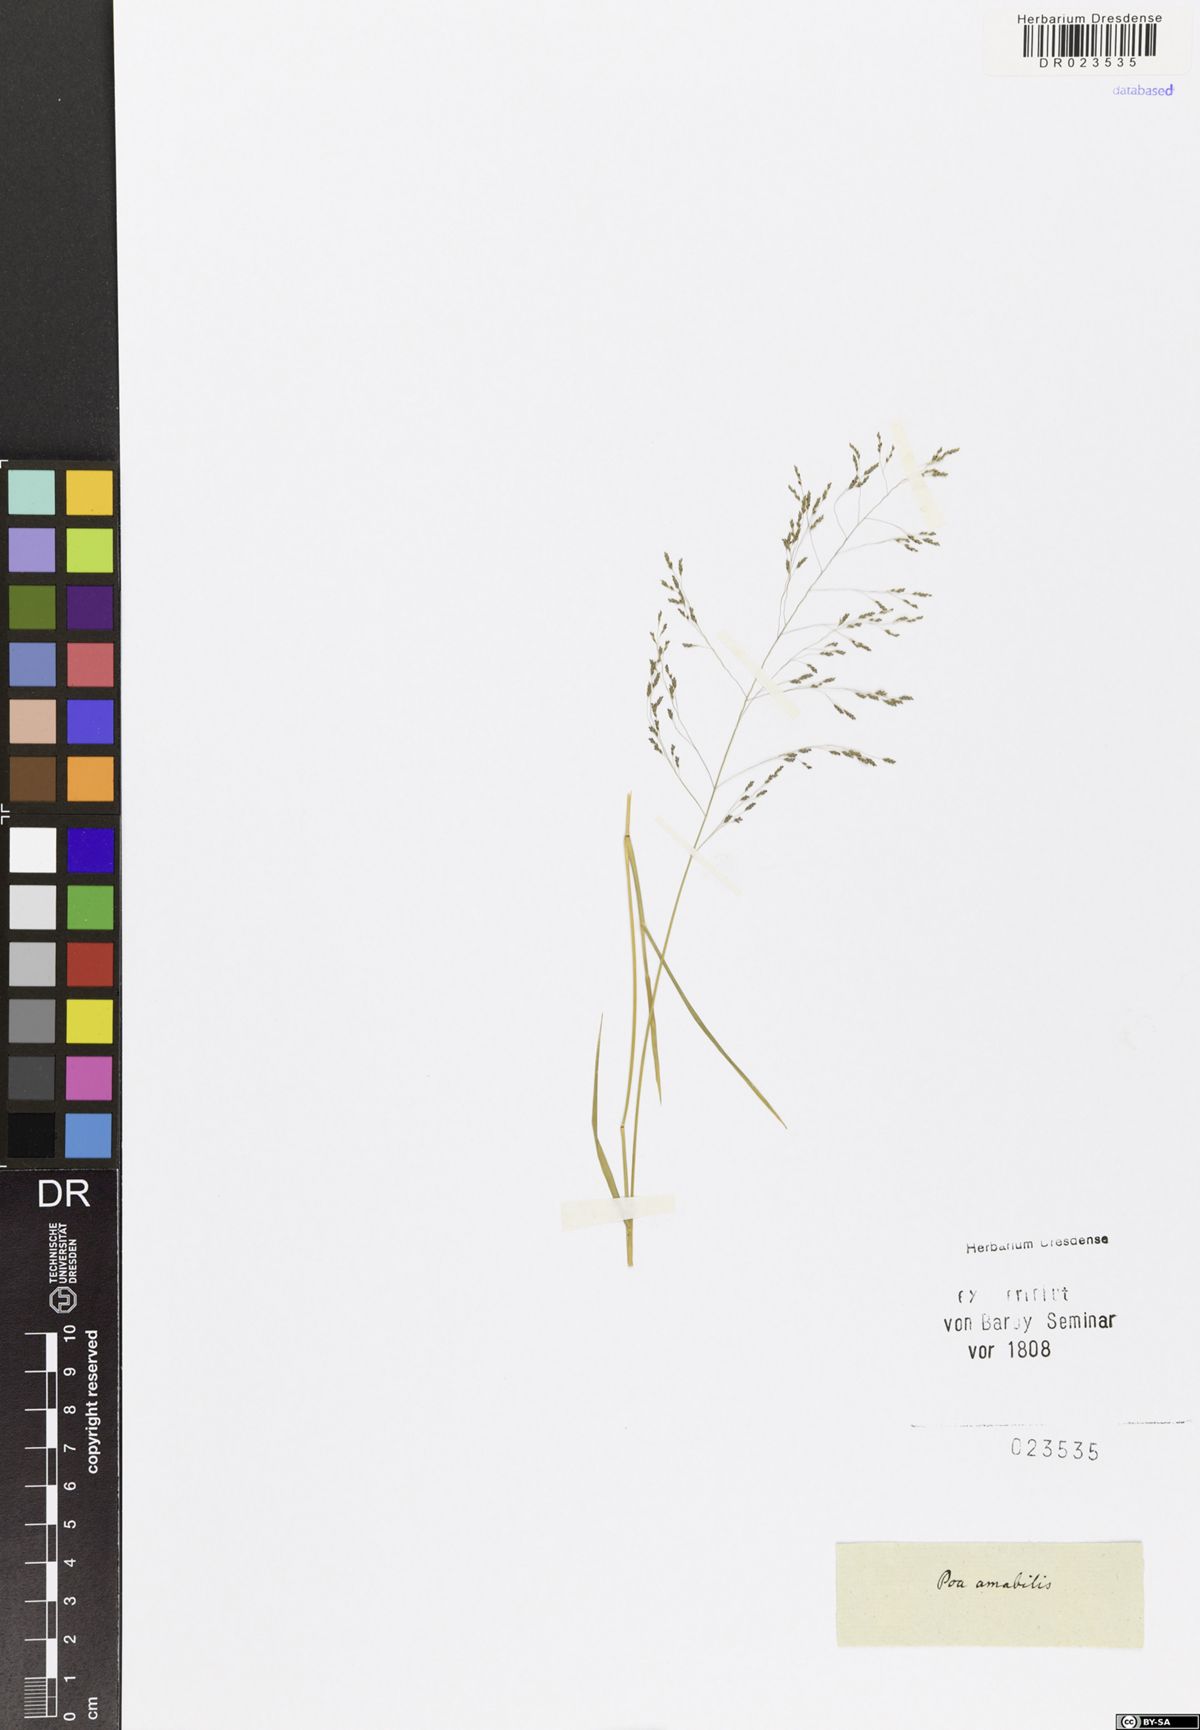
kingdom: Plantae
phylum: Tracheophyta
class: Liliopsida
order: Poales
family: Poaceae
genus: Eragrostis
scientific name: Eragrostis viscosa
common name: Sticky love grass
